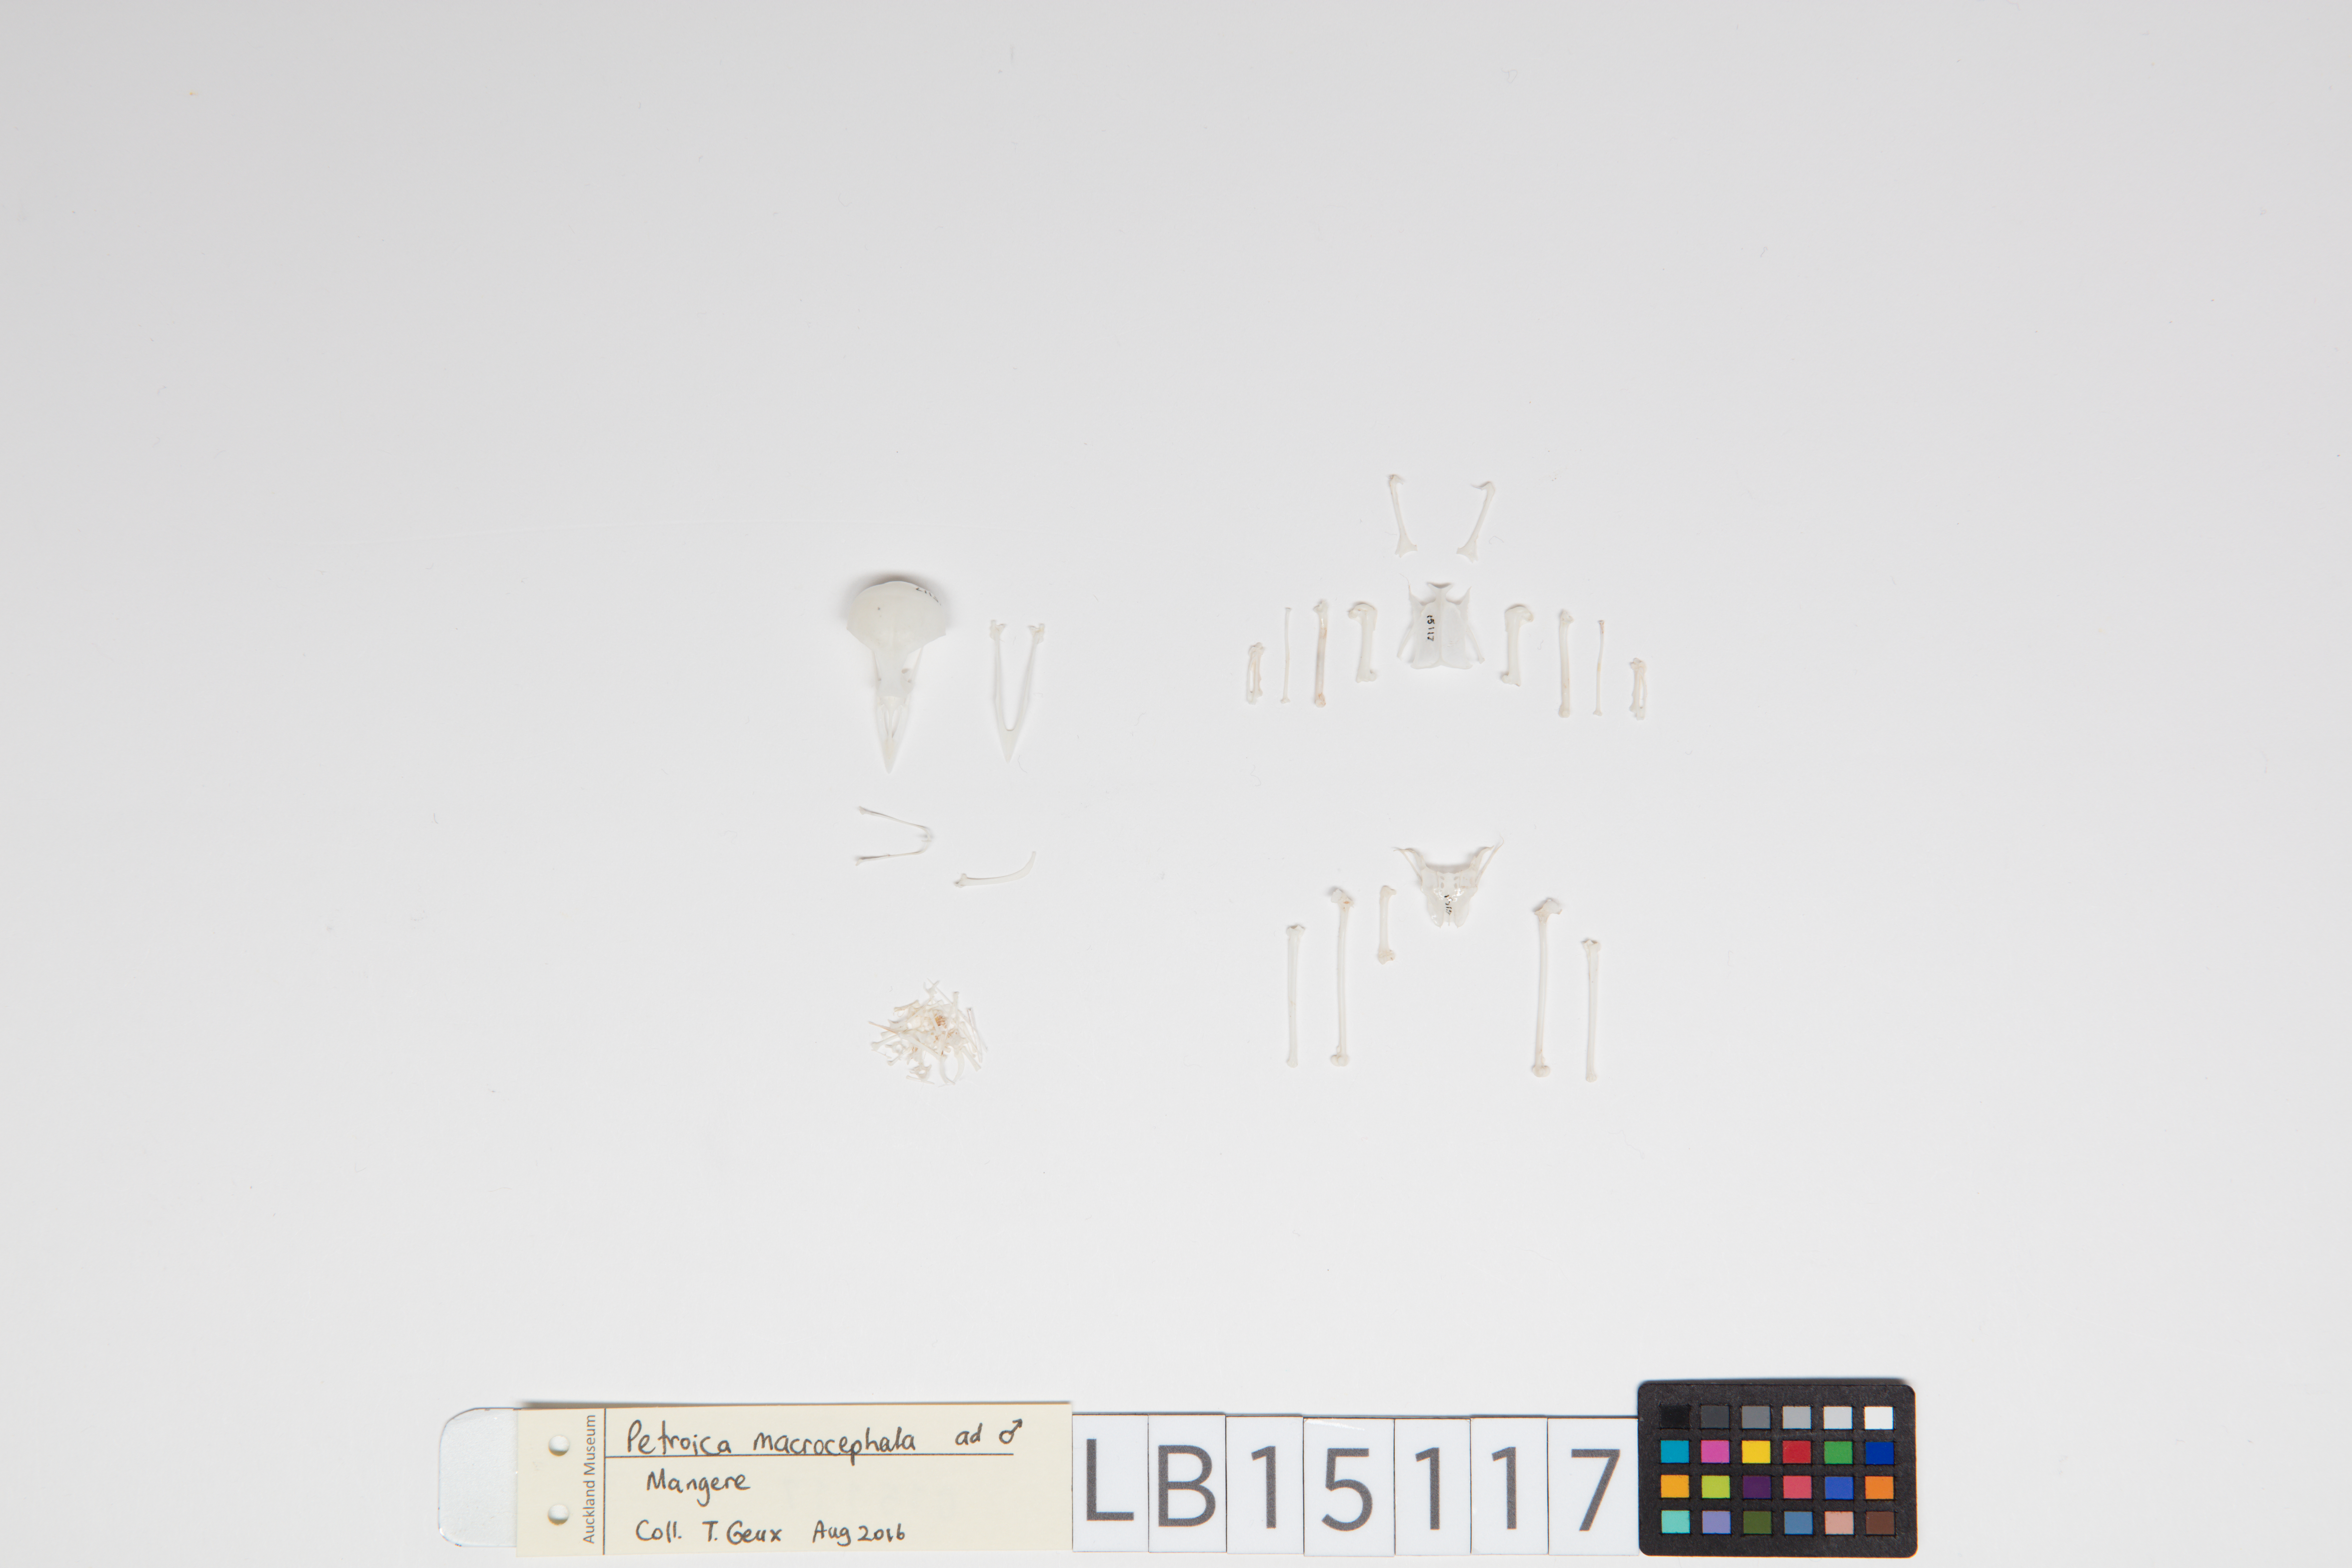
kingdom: Animalia
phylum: Chordata
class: Aves
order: Passeriformes
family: Petroicidae
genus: Petroica
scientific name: Petroica macrocephala
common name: Tomtit
